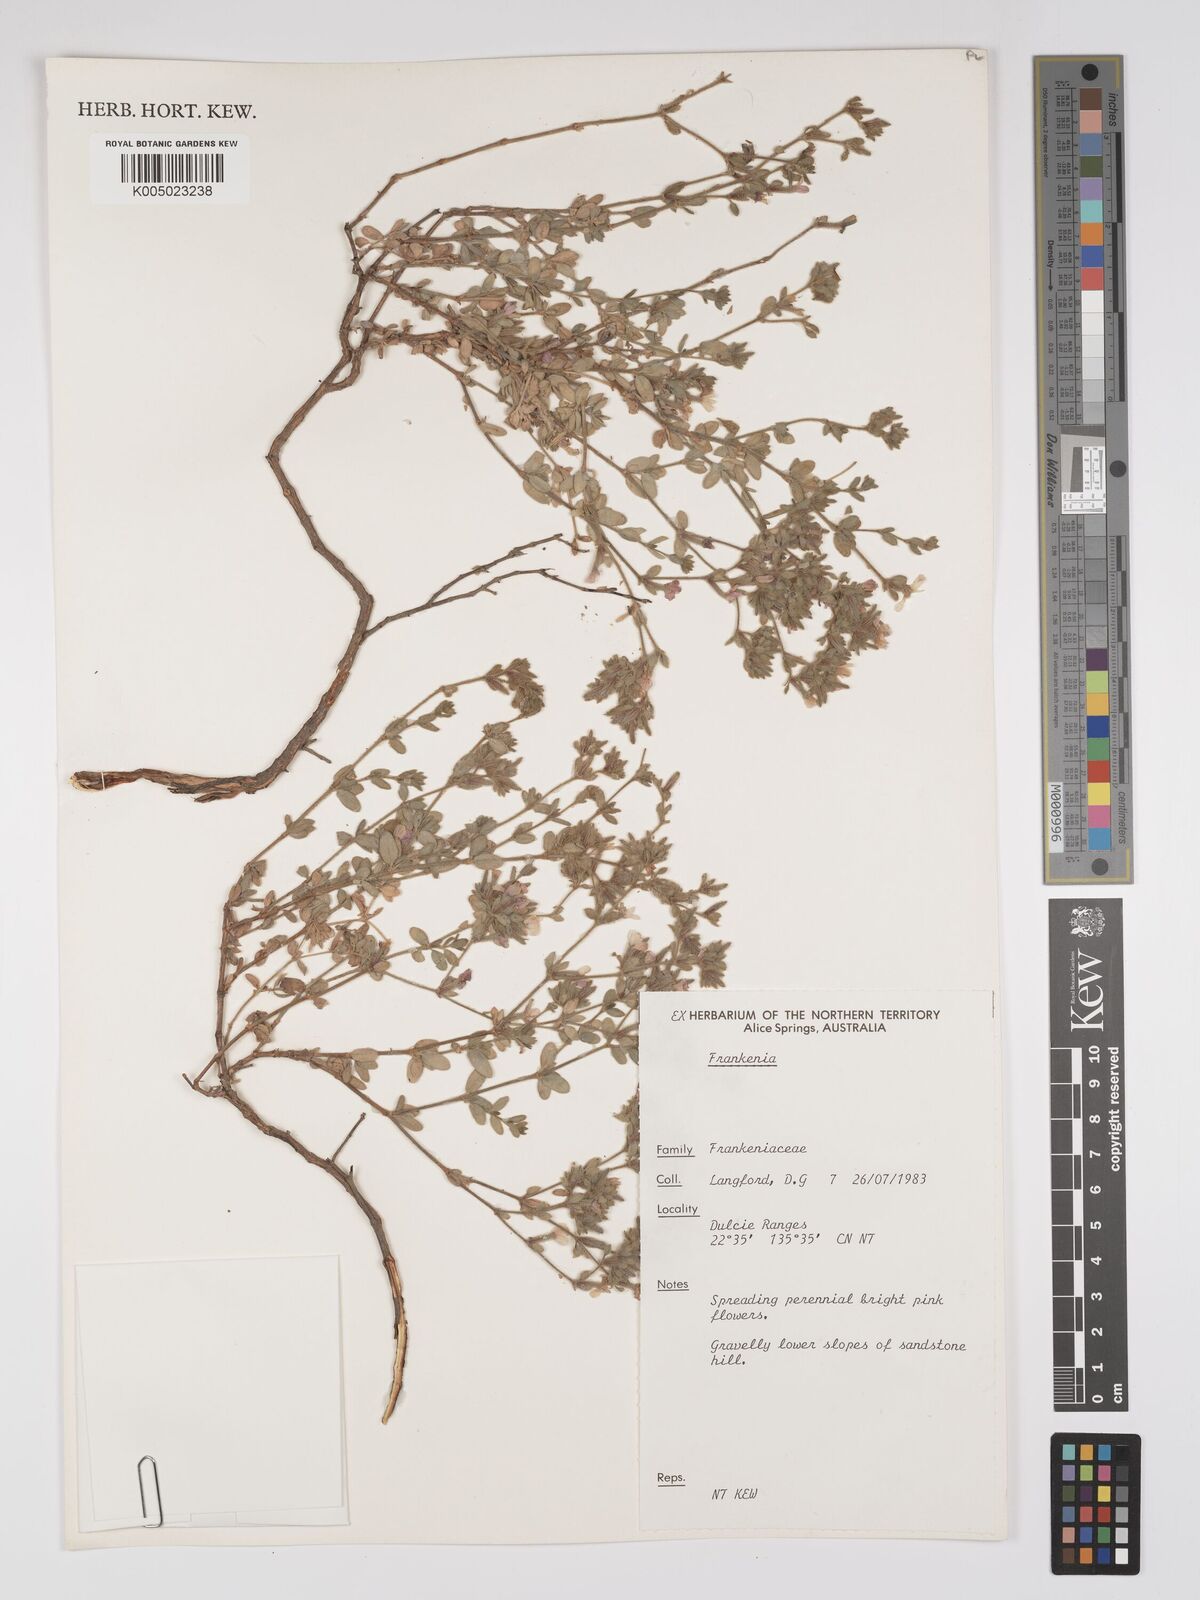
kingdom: Plantae
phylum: Tracheophyta
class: Magnoliopsida
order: Caryophyllales
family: Frankeniaceae
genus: Frankenia
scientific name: Frankenia
